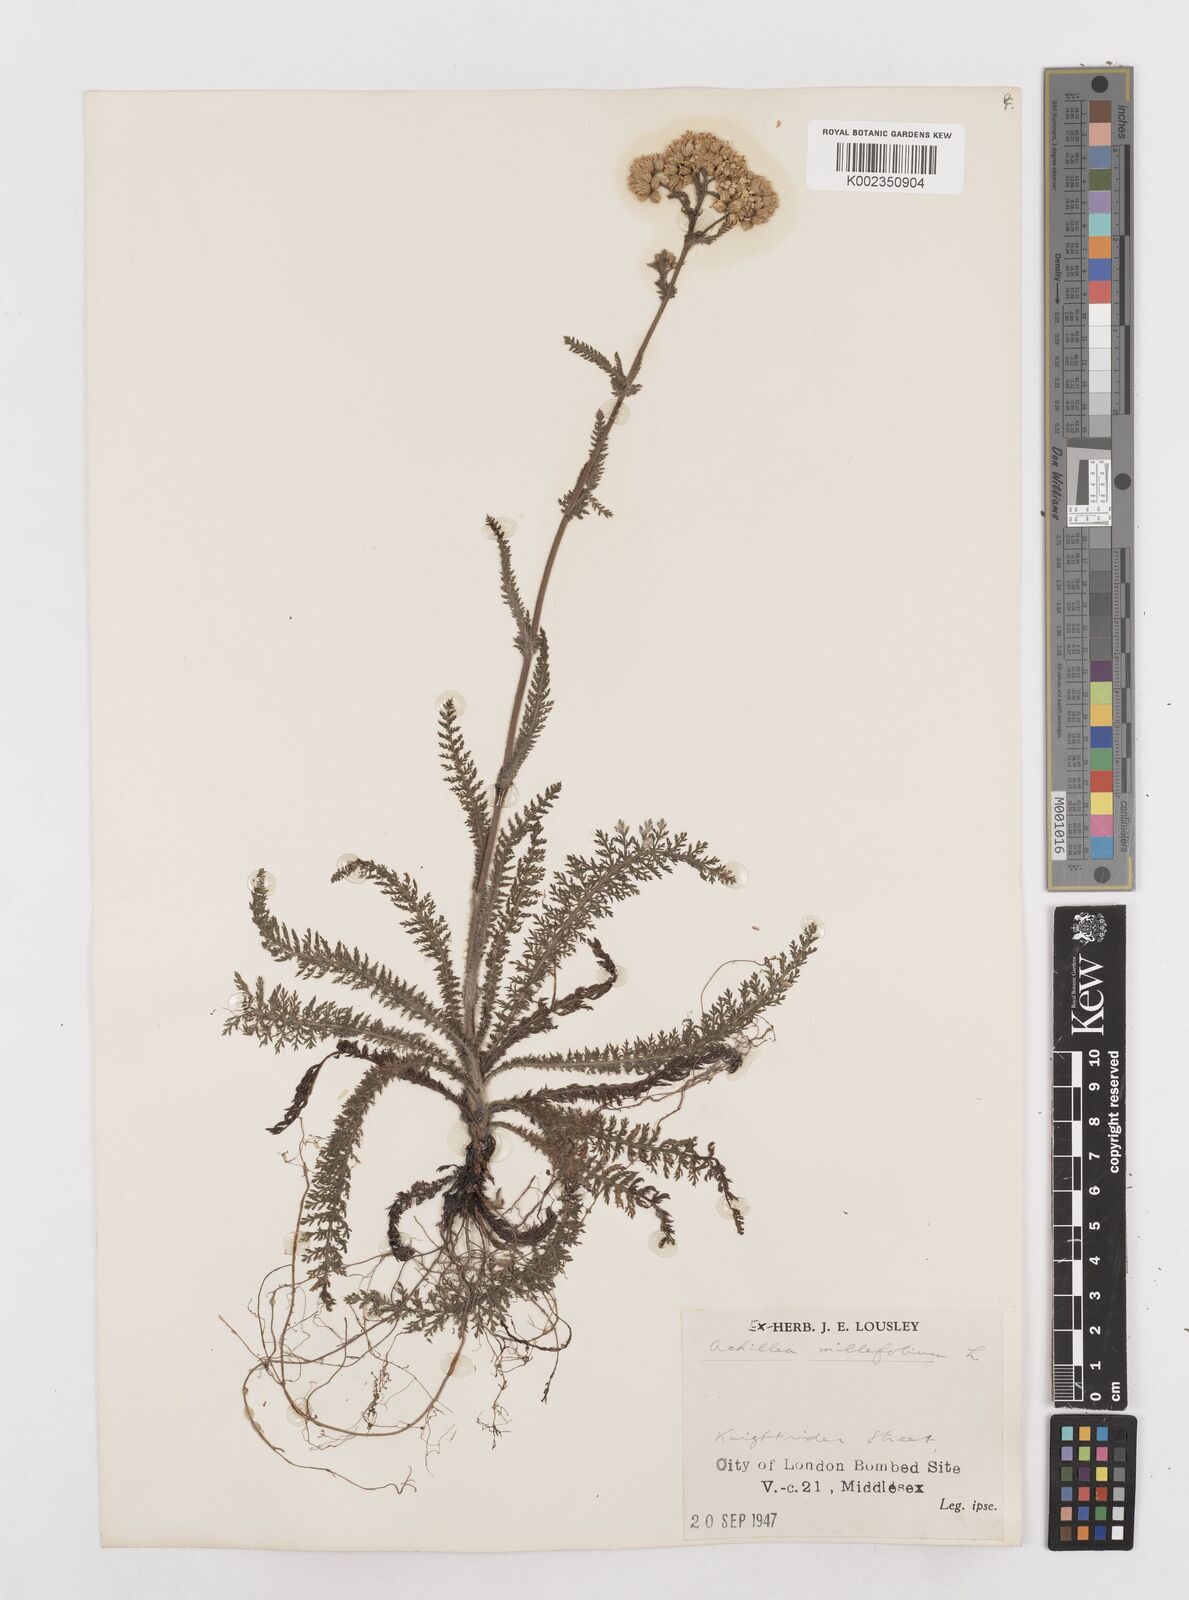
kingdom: Plantae
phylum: Tracheophyta
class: Magnoliopsida
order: Asterales
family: Asteraceae
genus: Achillea
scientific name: Achillea millefolium
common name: Yarrow
